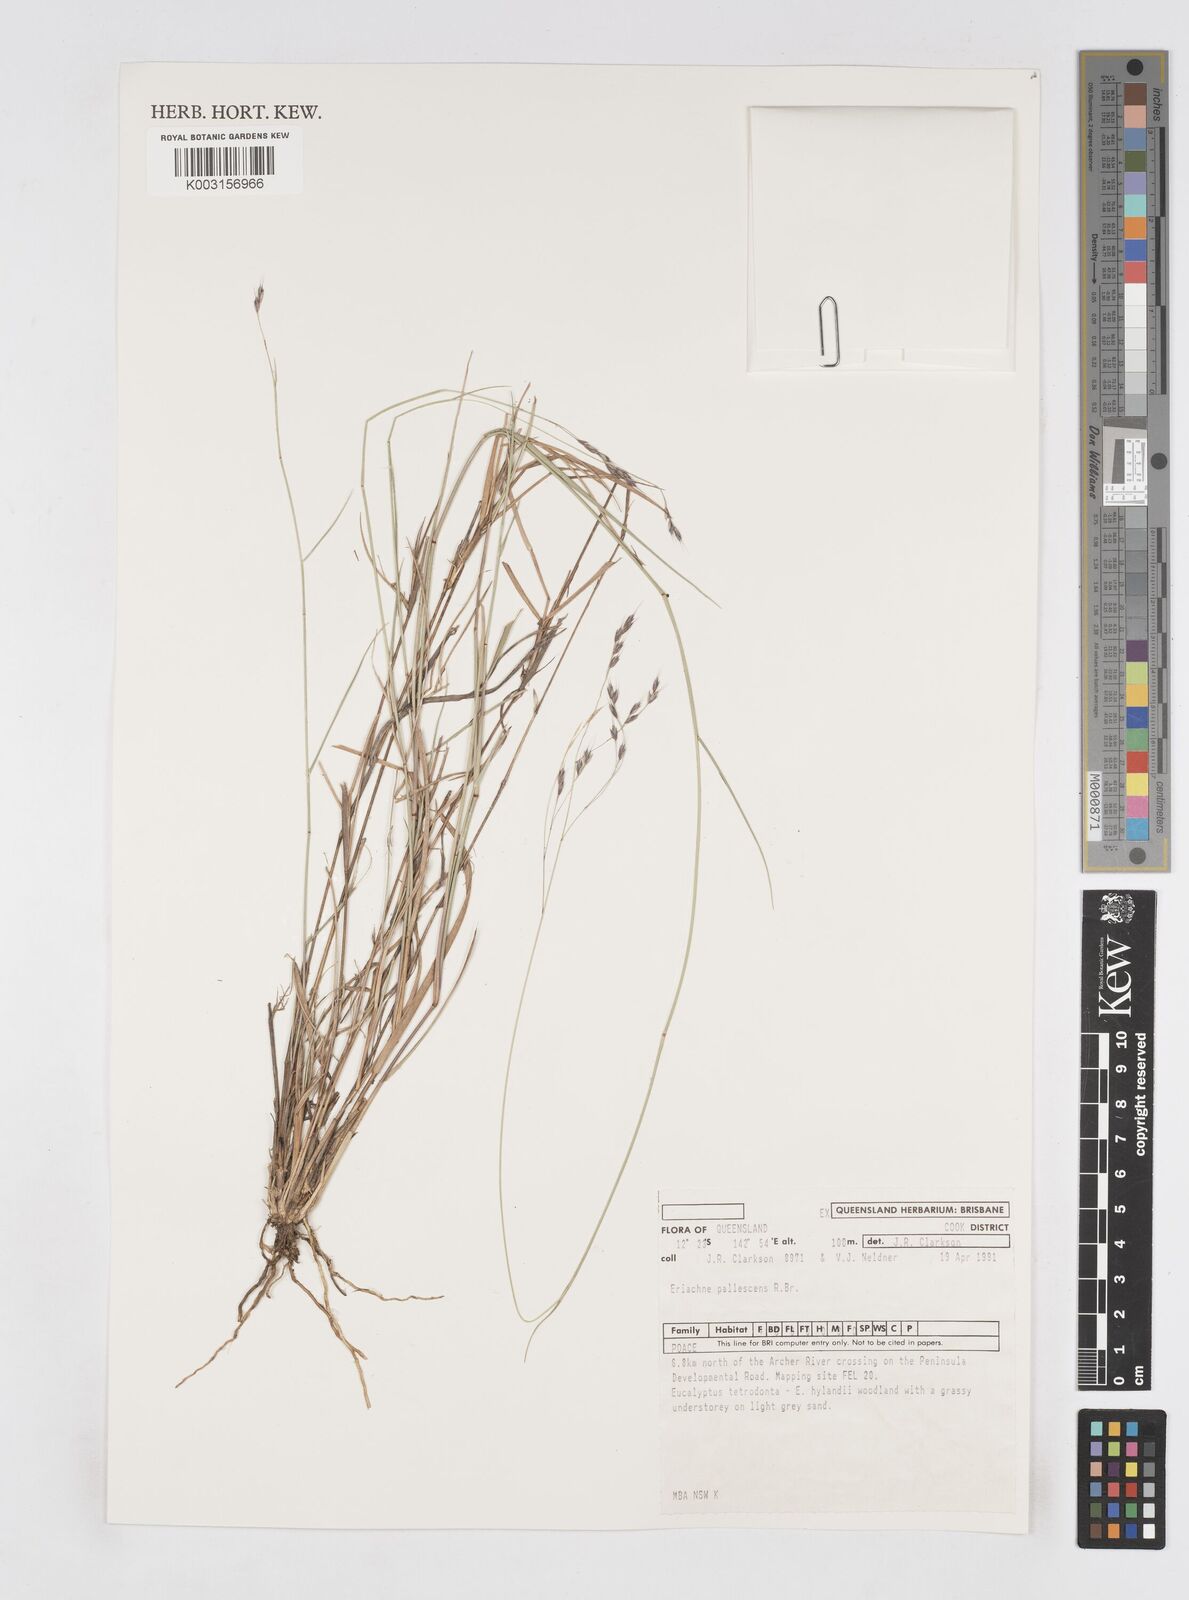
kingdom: Plantae
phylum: Tracheophyta
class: Liliopsida
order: Poales
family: Poaceae
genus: Eriachne
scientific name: Eriachne pallescens
